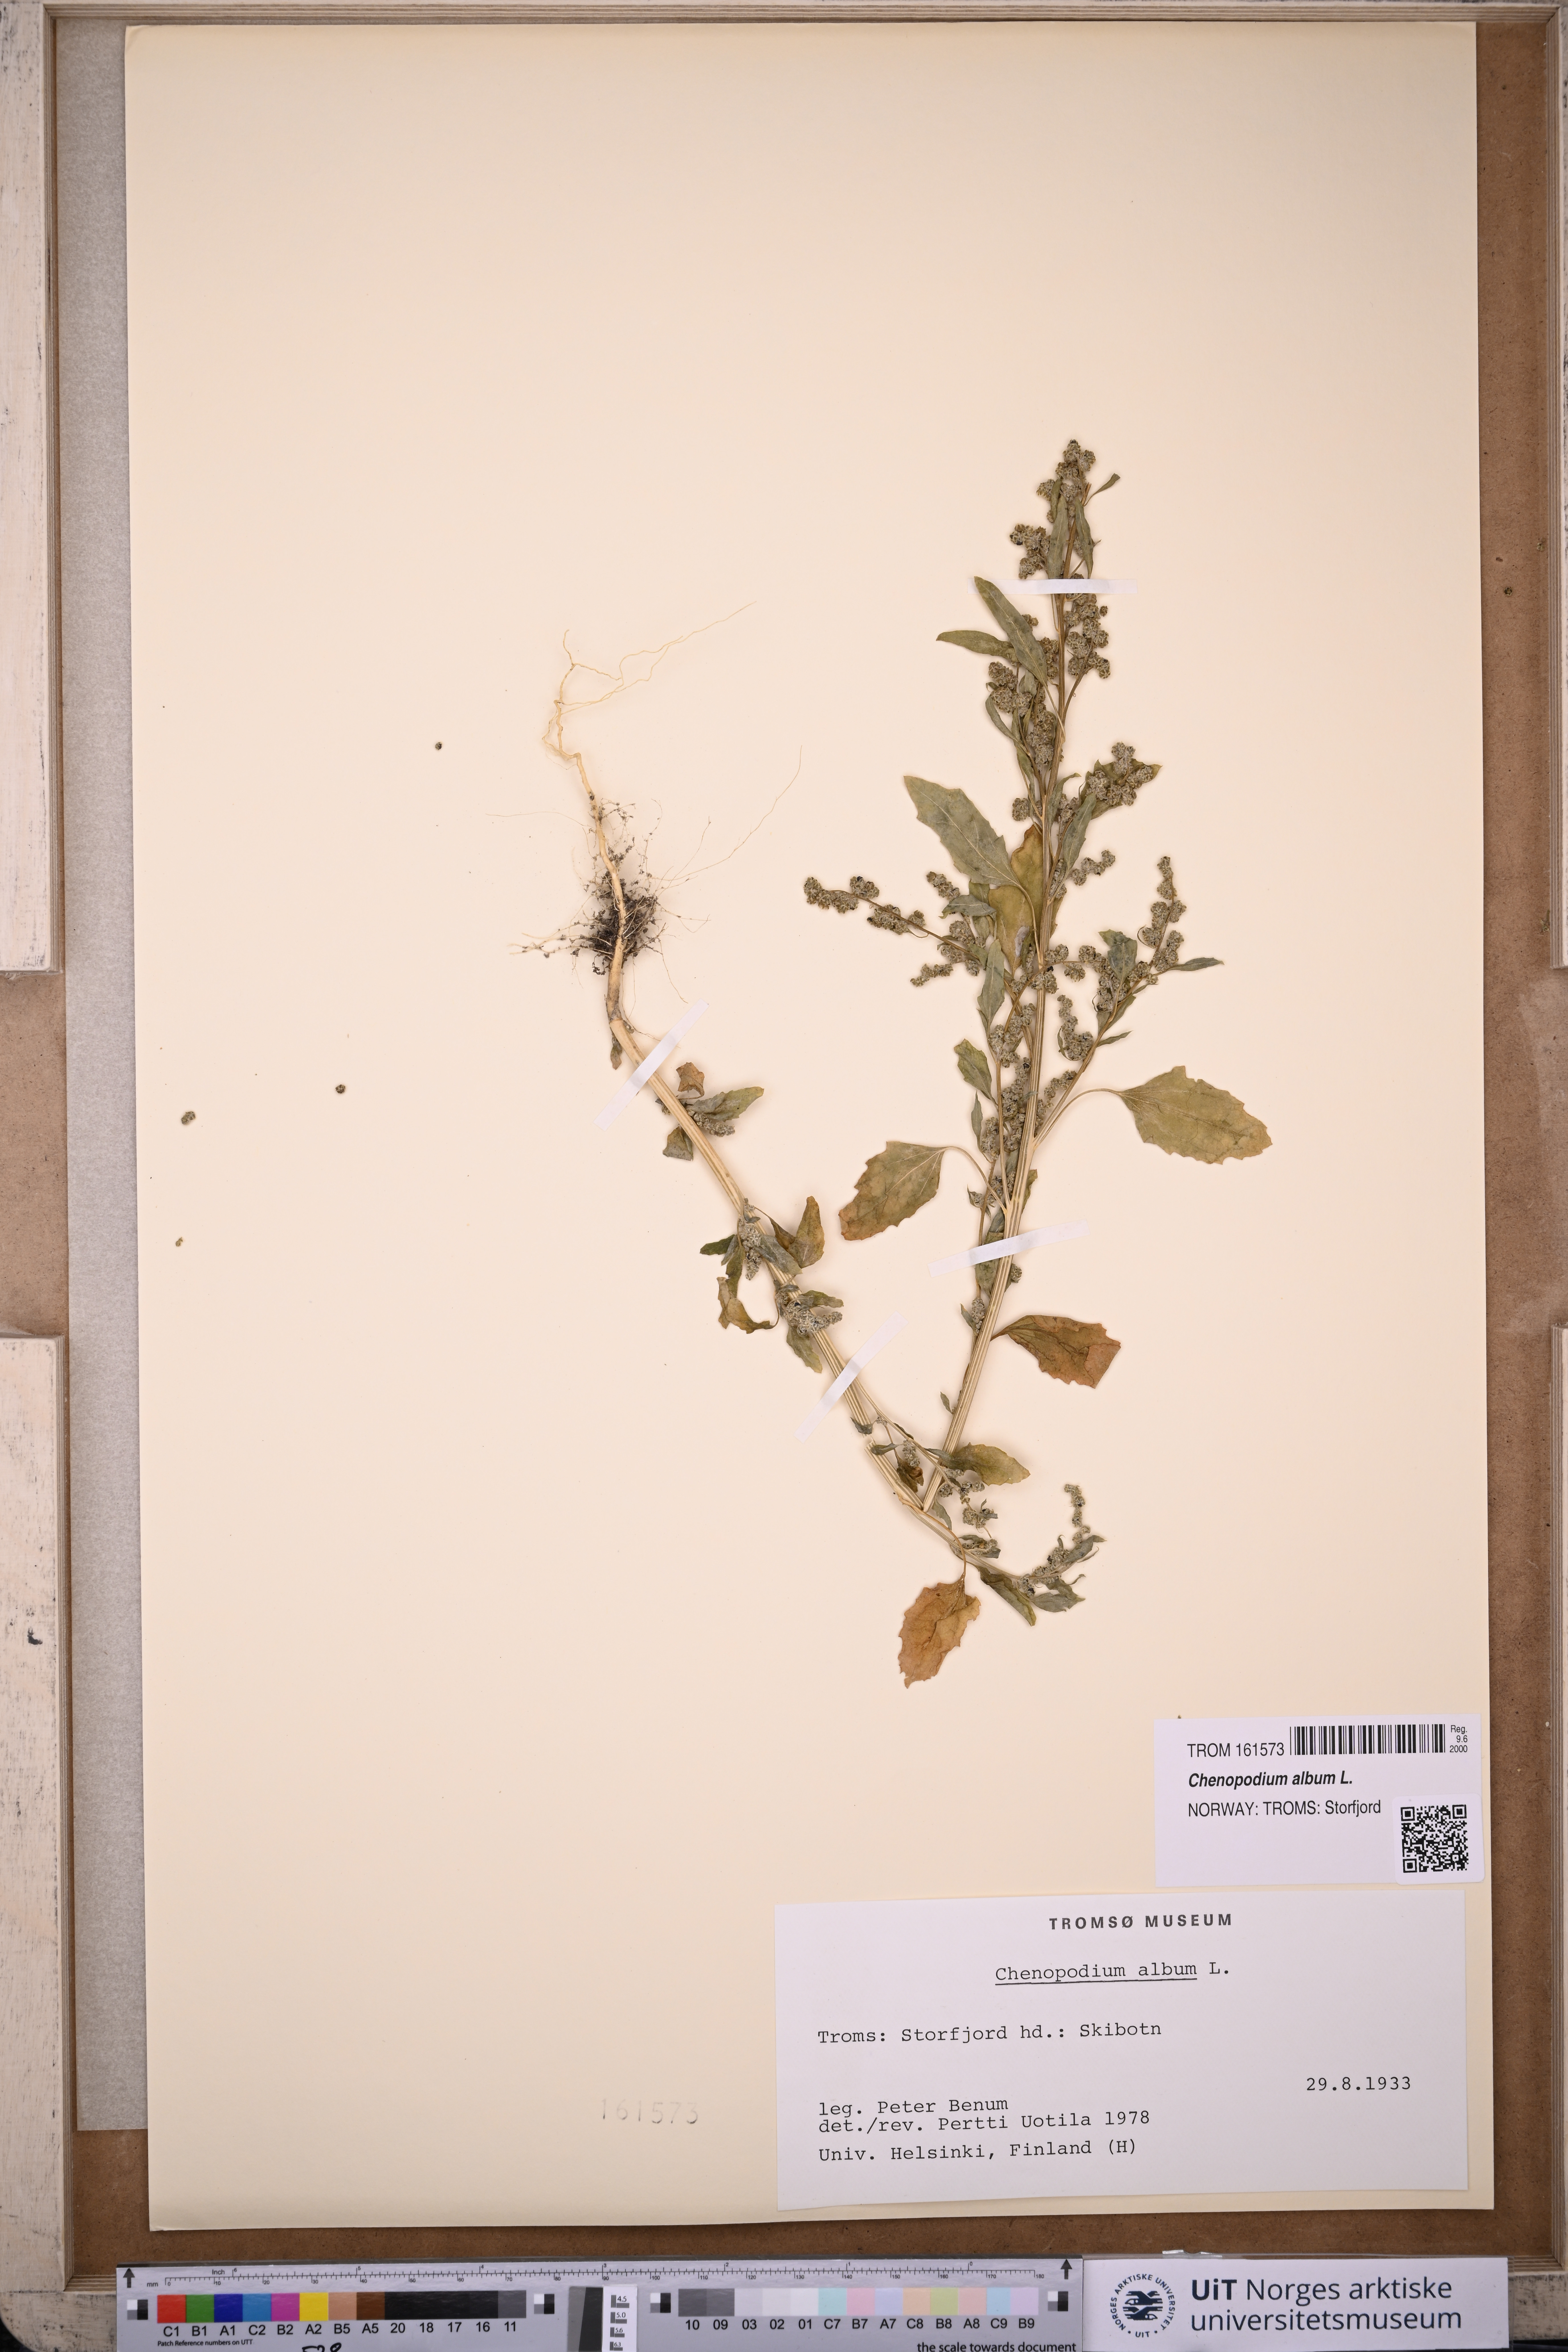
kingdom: Plantae
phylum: Tracheophyta
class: Magnoliopsida
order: Caryophyllales
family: Amaranthaceae
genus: Chenopodium
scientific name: Chenopodium album
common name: Fat-hen
